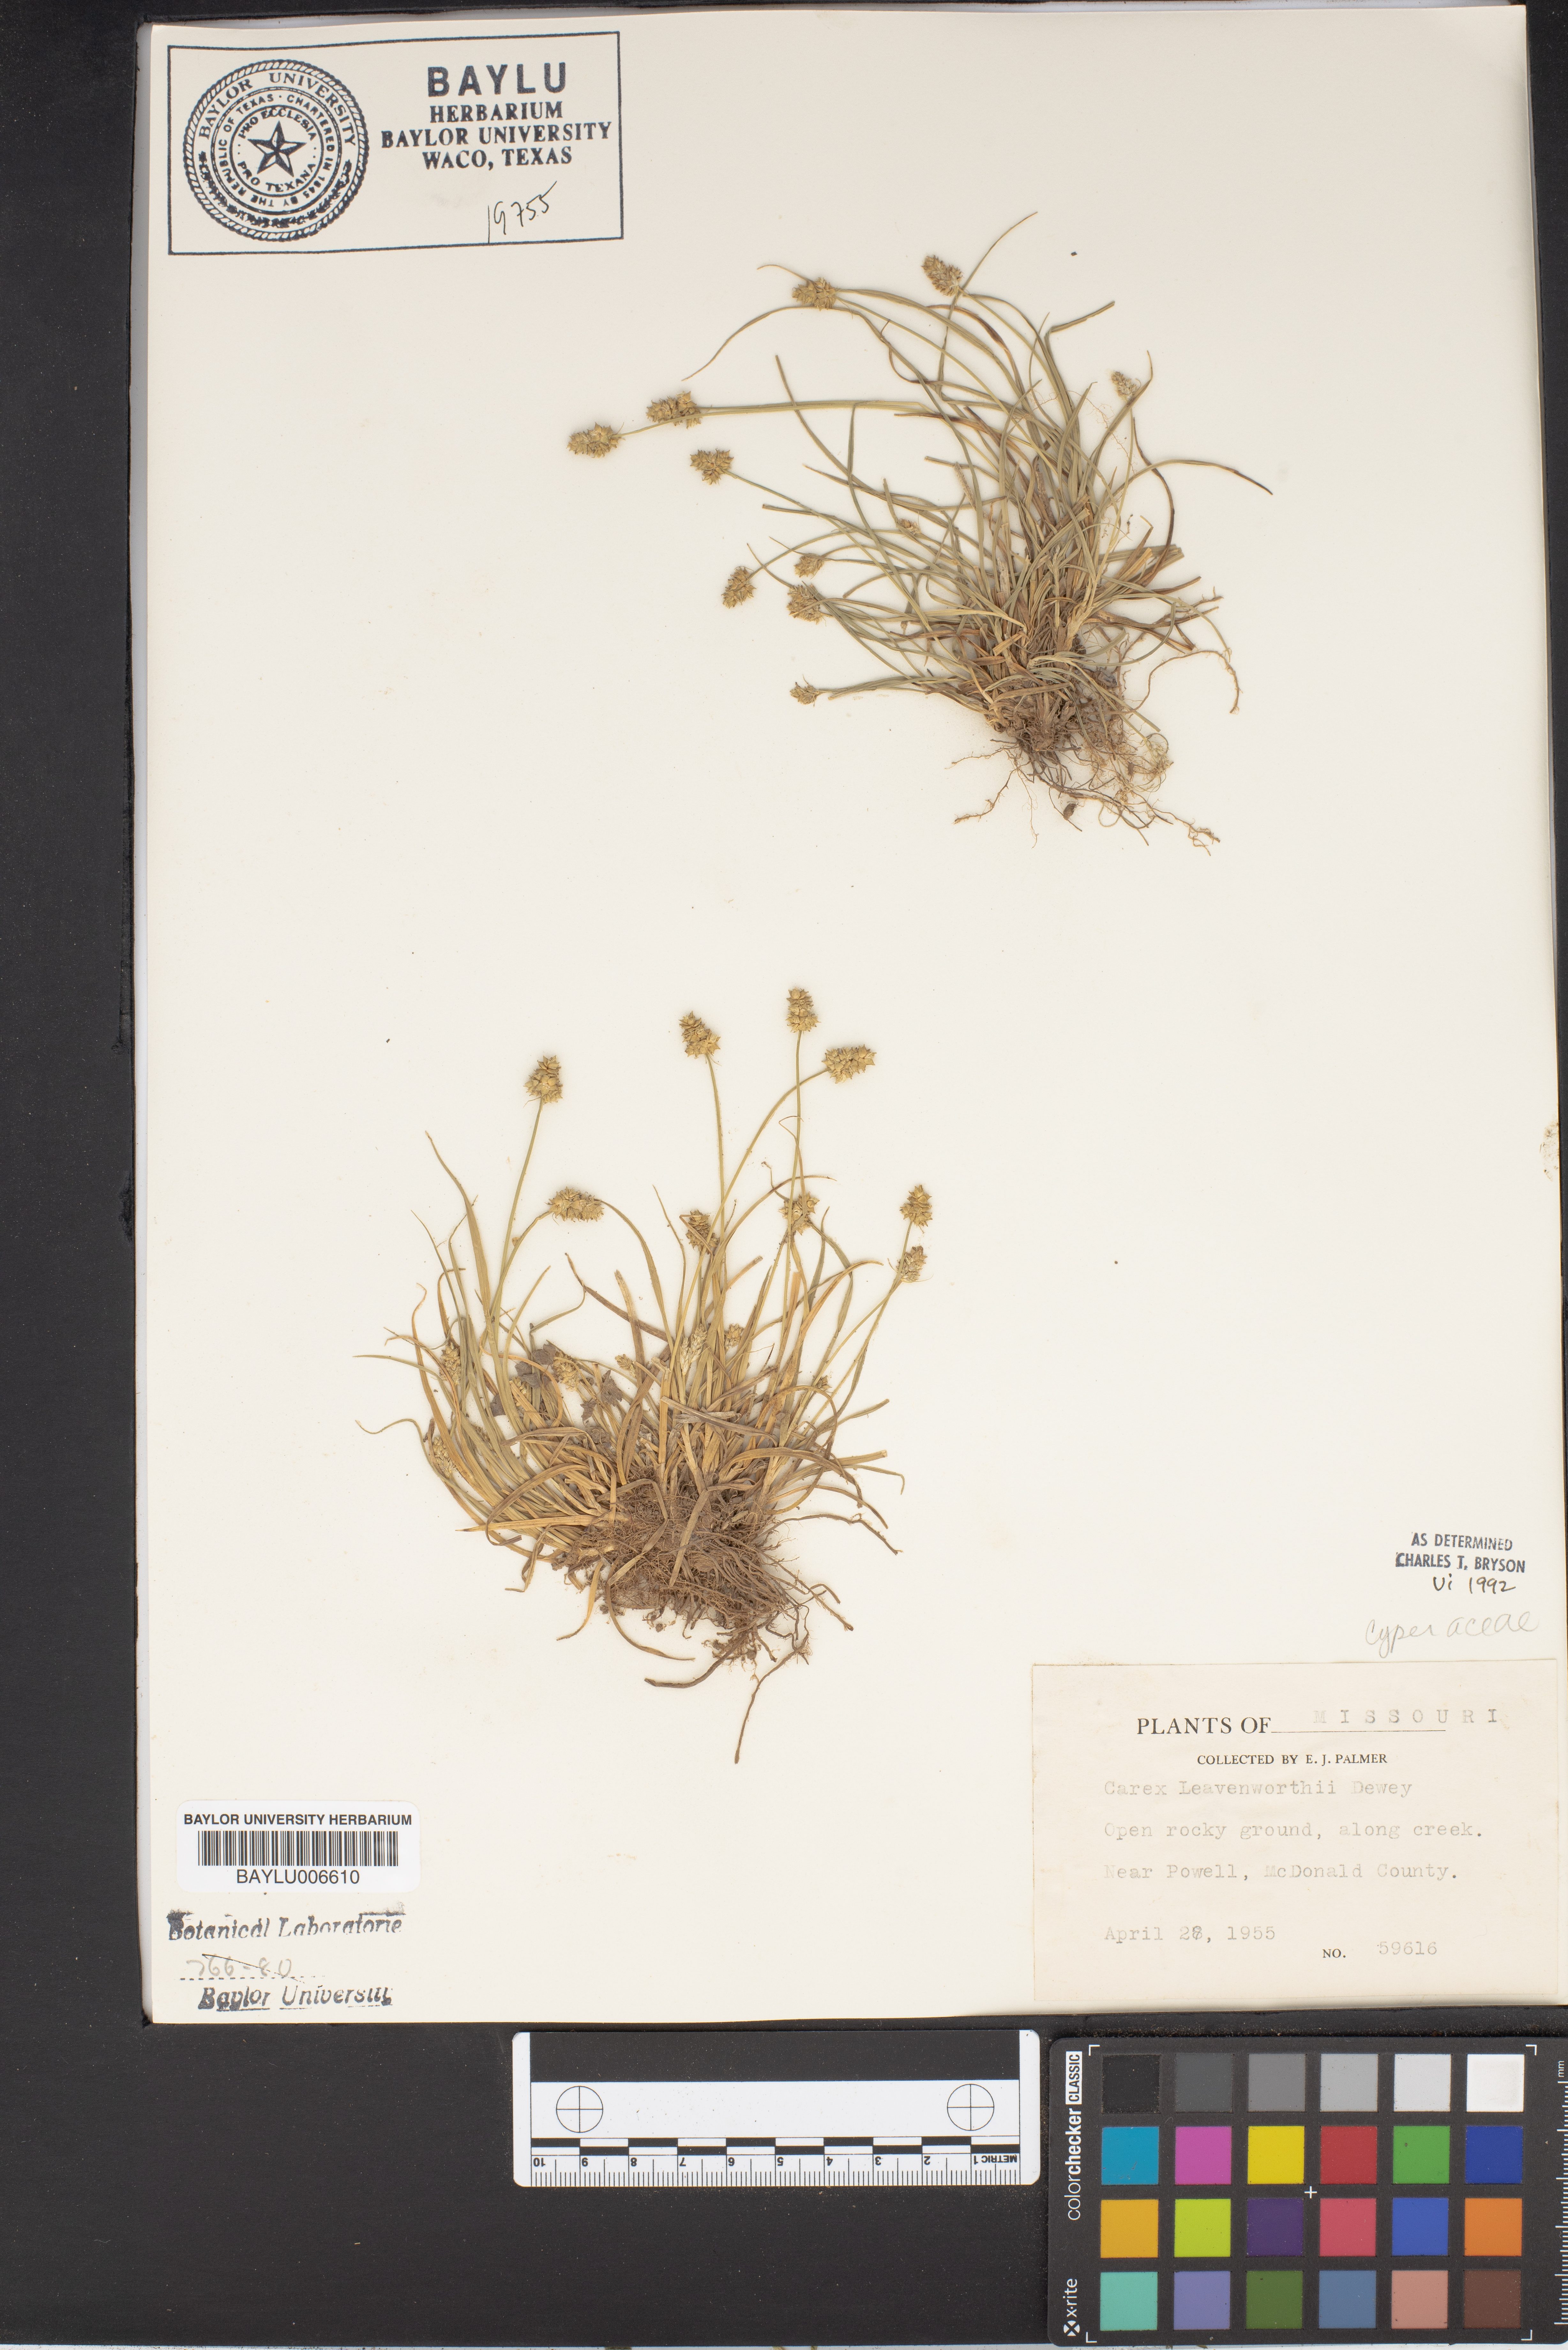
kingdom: Plantae
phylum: Tracheophyta
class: Liliopsida
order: Poales
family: Cyperaceae
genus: Carex
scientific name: Carex leavenworthii
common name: Leavenworth's bracted sedge
